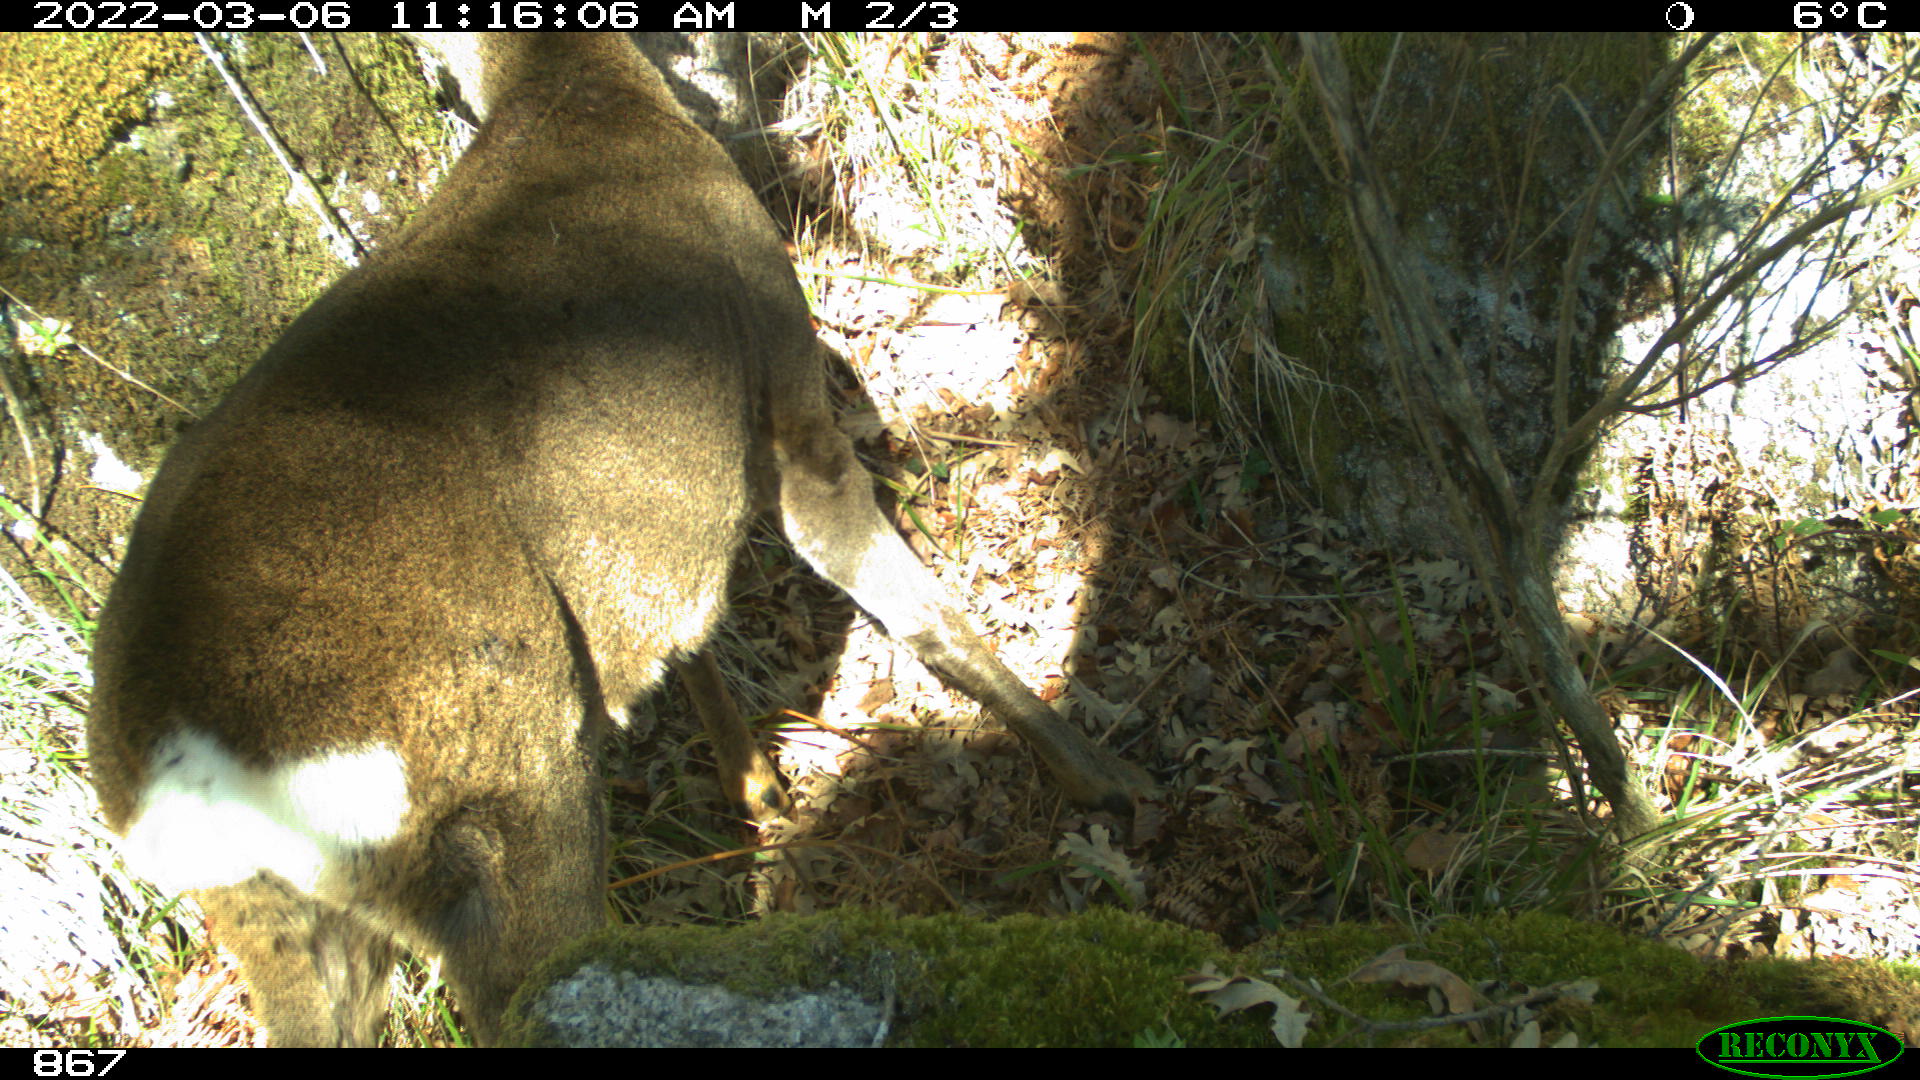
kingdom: Animalia
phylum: Chordata
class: Mammalia
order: Artiodactyla
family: Cervidae
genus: Capreolus
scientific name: Capreolus capreolus
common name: Western roe deer
